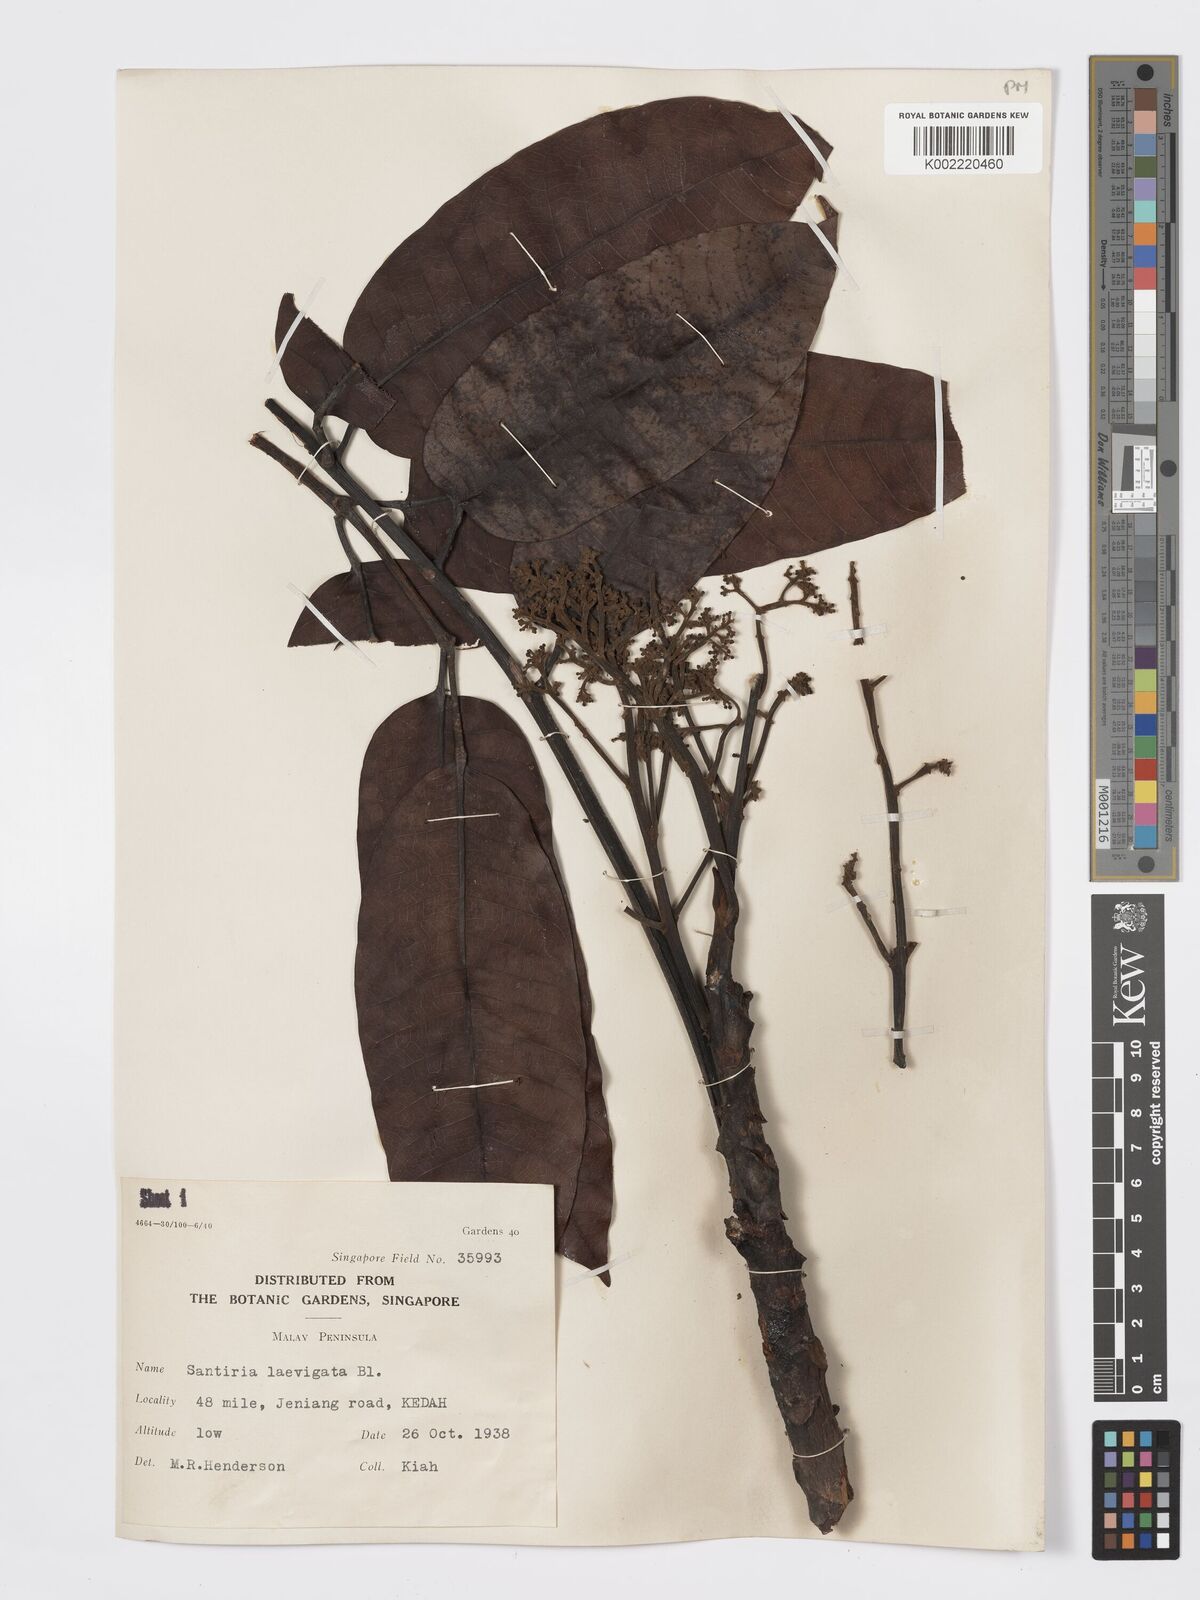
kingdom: Plantae
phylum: Tracheophyta
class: Magnoliopsida
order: Sapindales
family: Burseraceae
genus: Santiria
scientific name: Santiria laevigata
